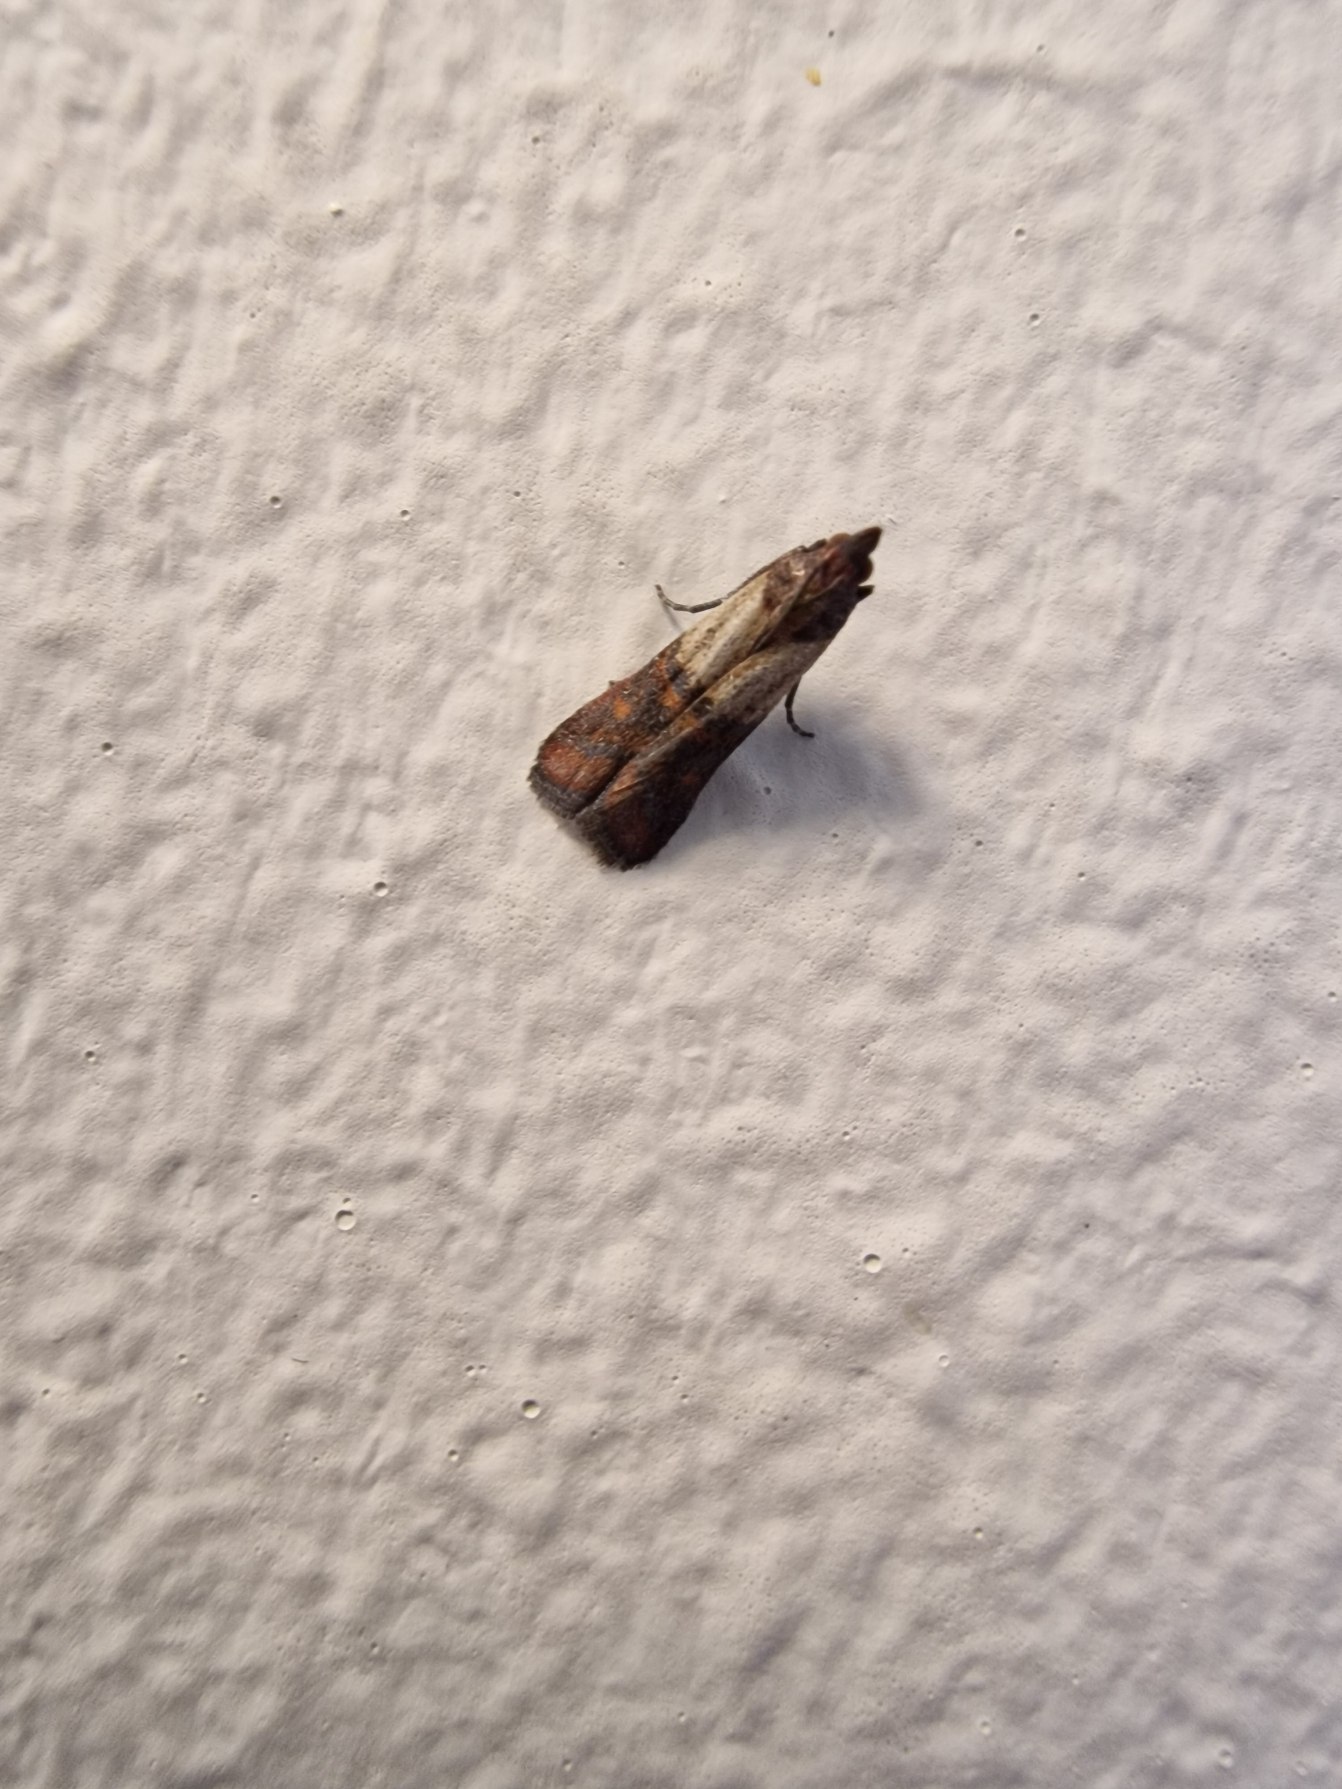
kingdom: Animalia
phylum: Arthropoda
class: Insecta
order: Lepidoptera
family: Pyralidae
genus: Plodia
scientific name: Plodia interpunctella
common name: Tofarvet frømøl
